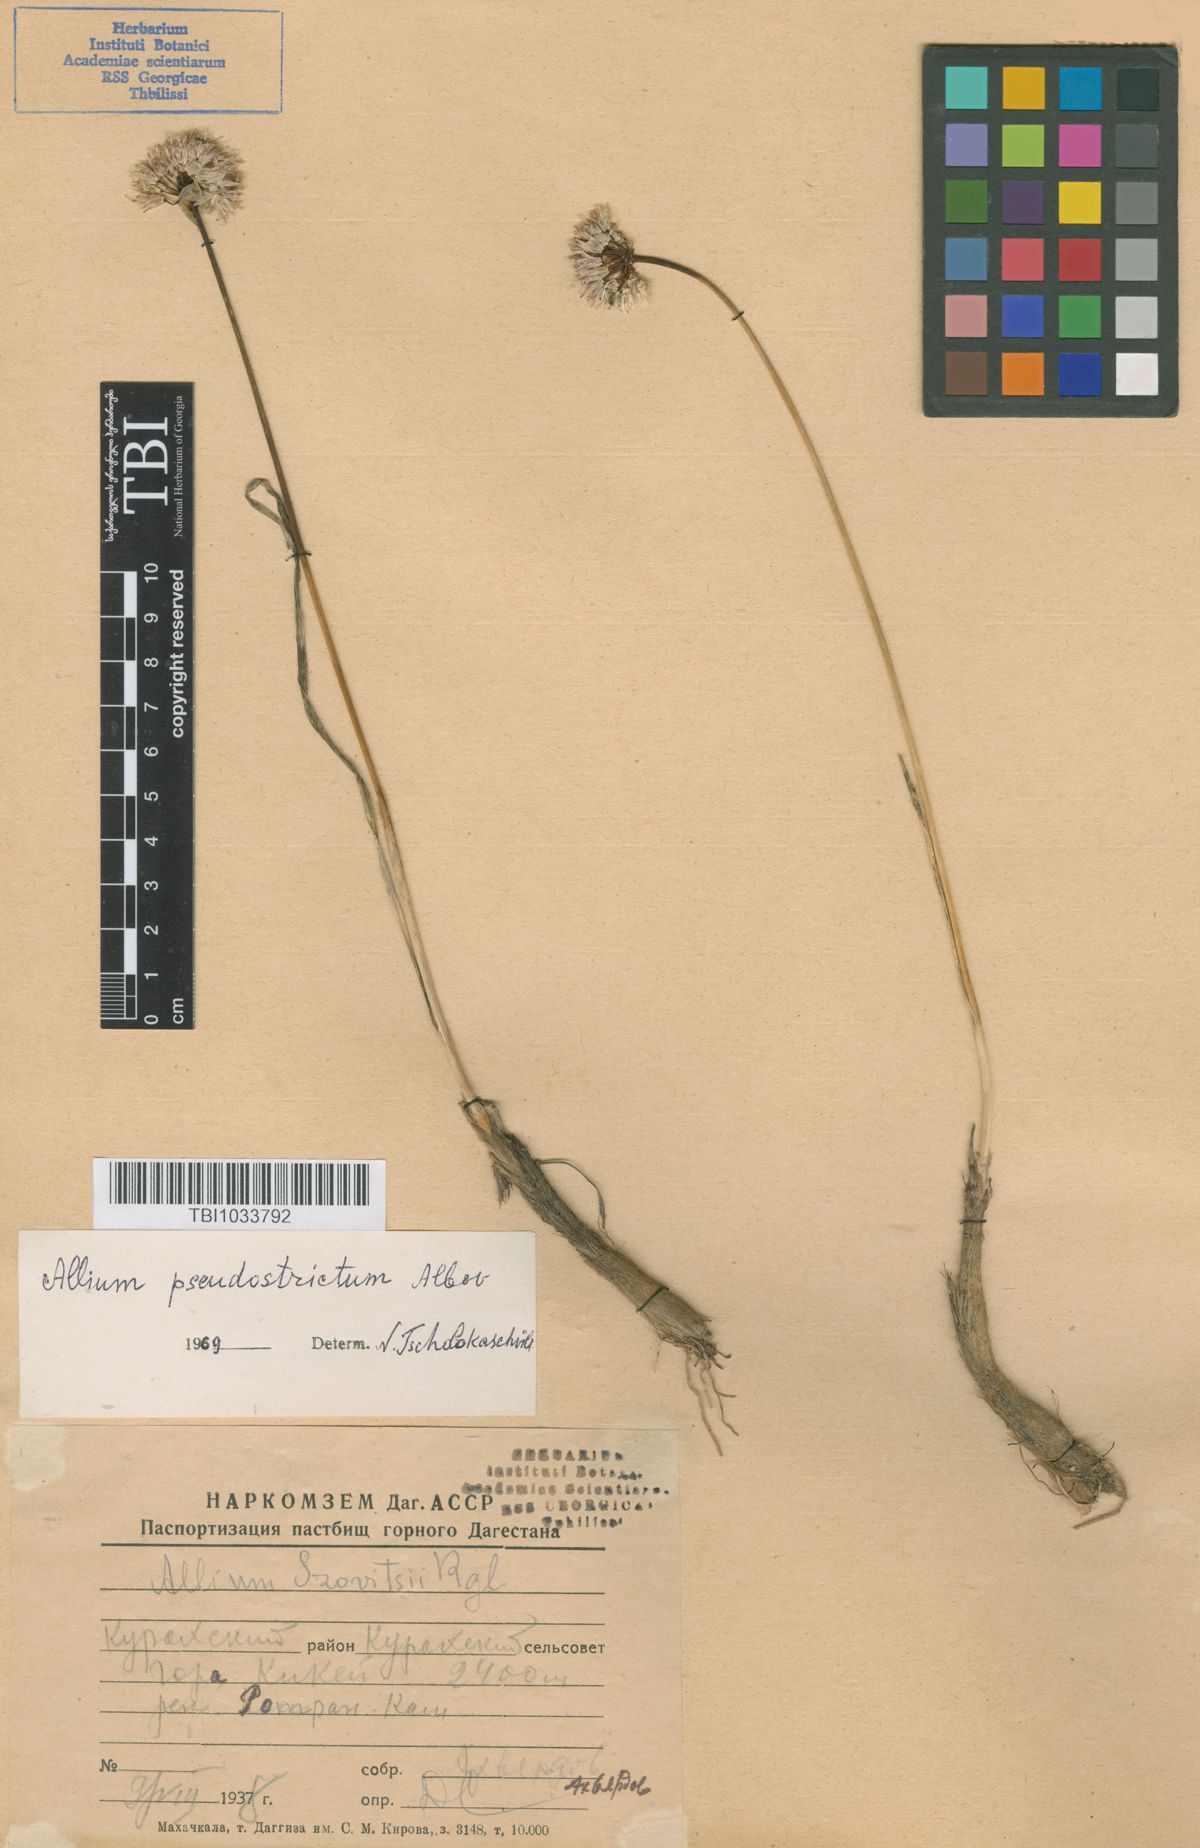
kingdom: Plantae
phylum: Tracheophyta
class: Liliopsida
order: Asparagales
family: Amaryllidaceae
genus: Allium
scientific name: Allium pseudostrictum
